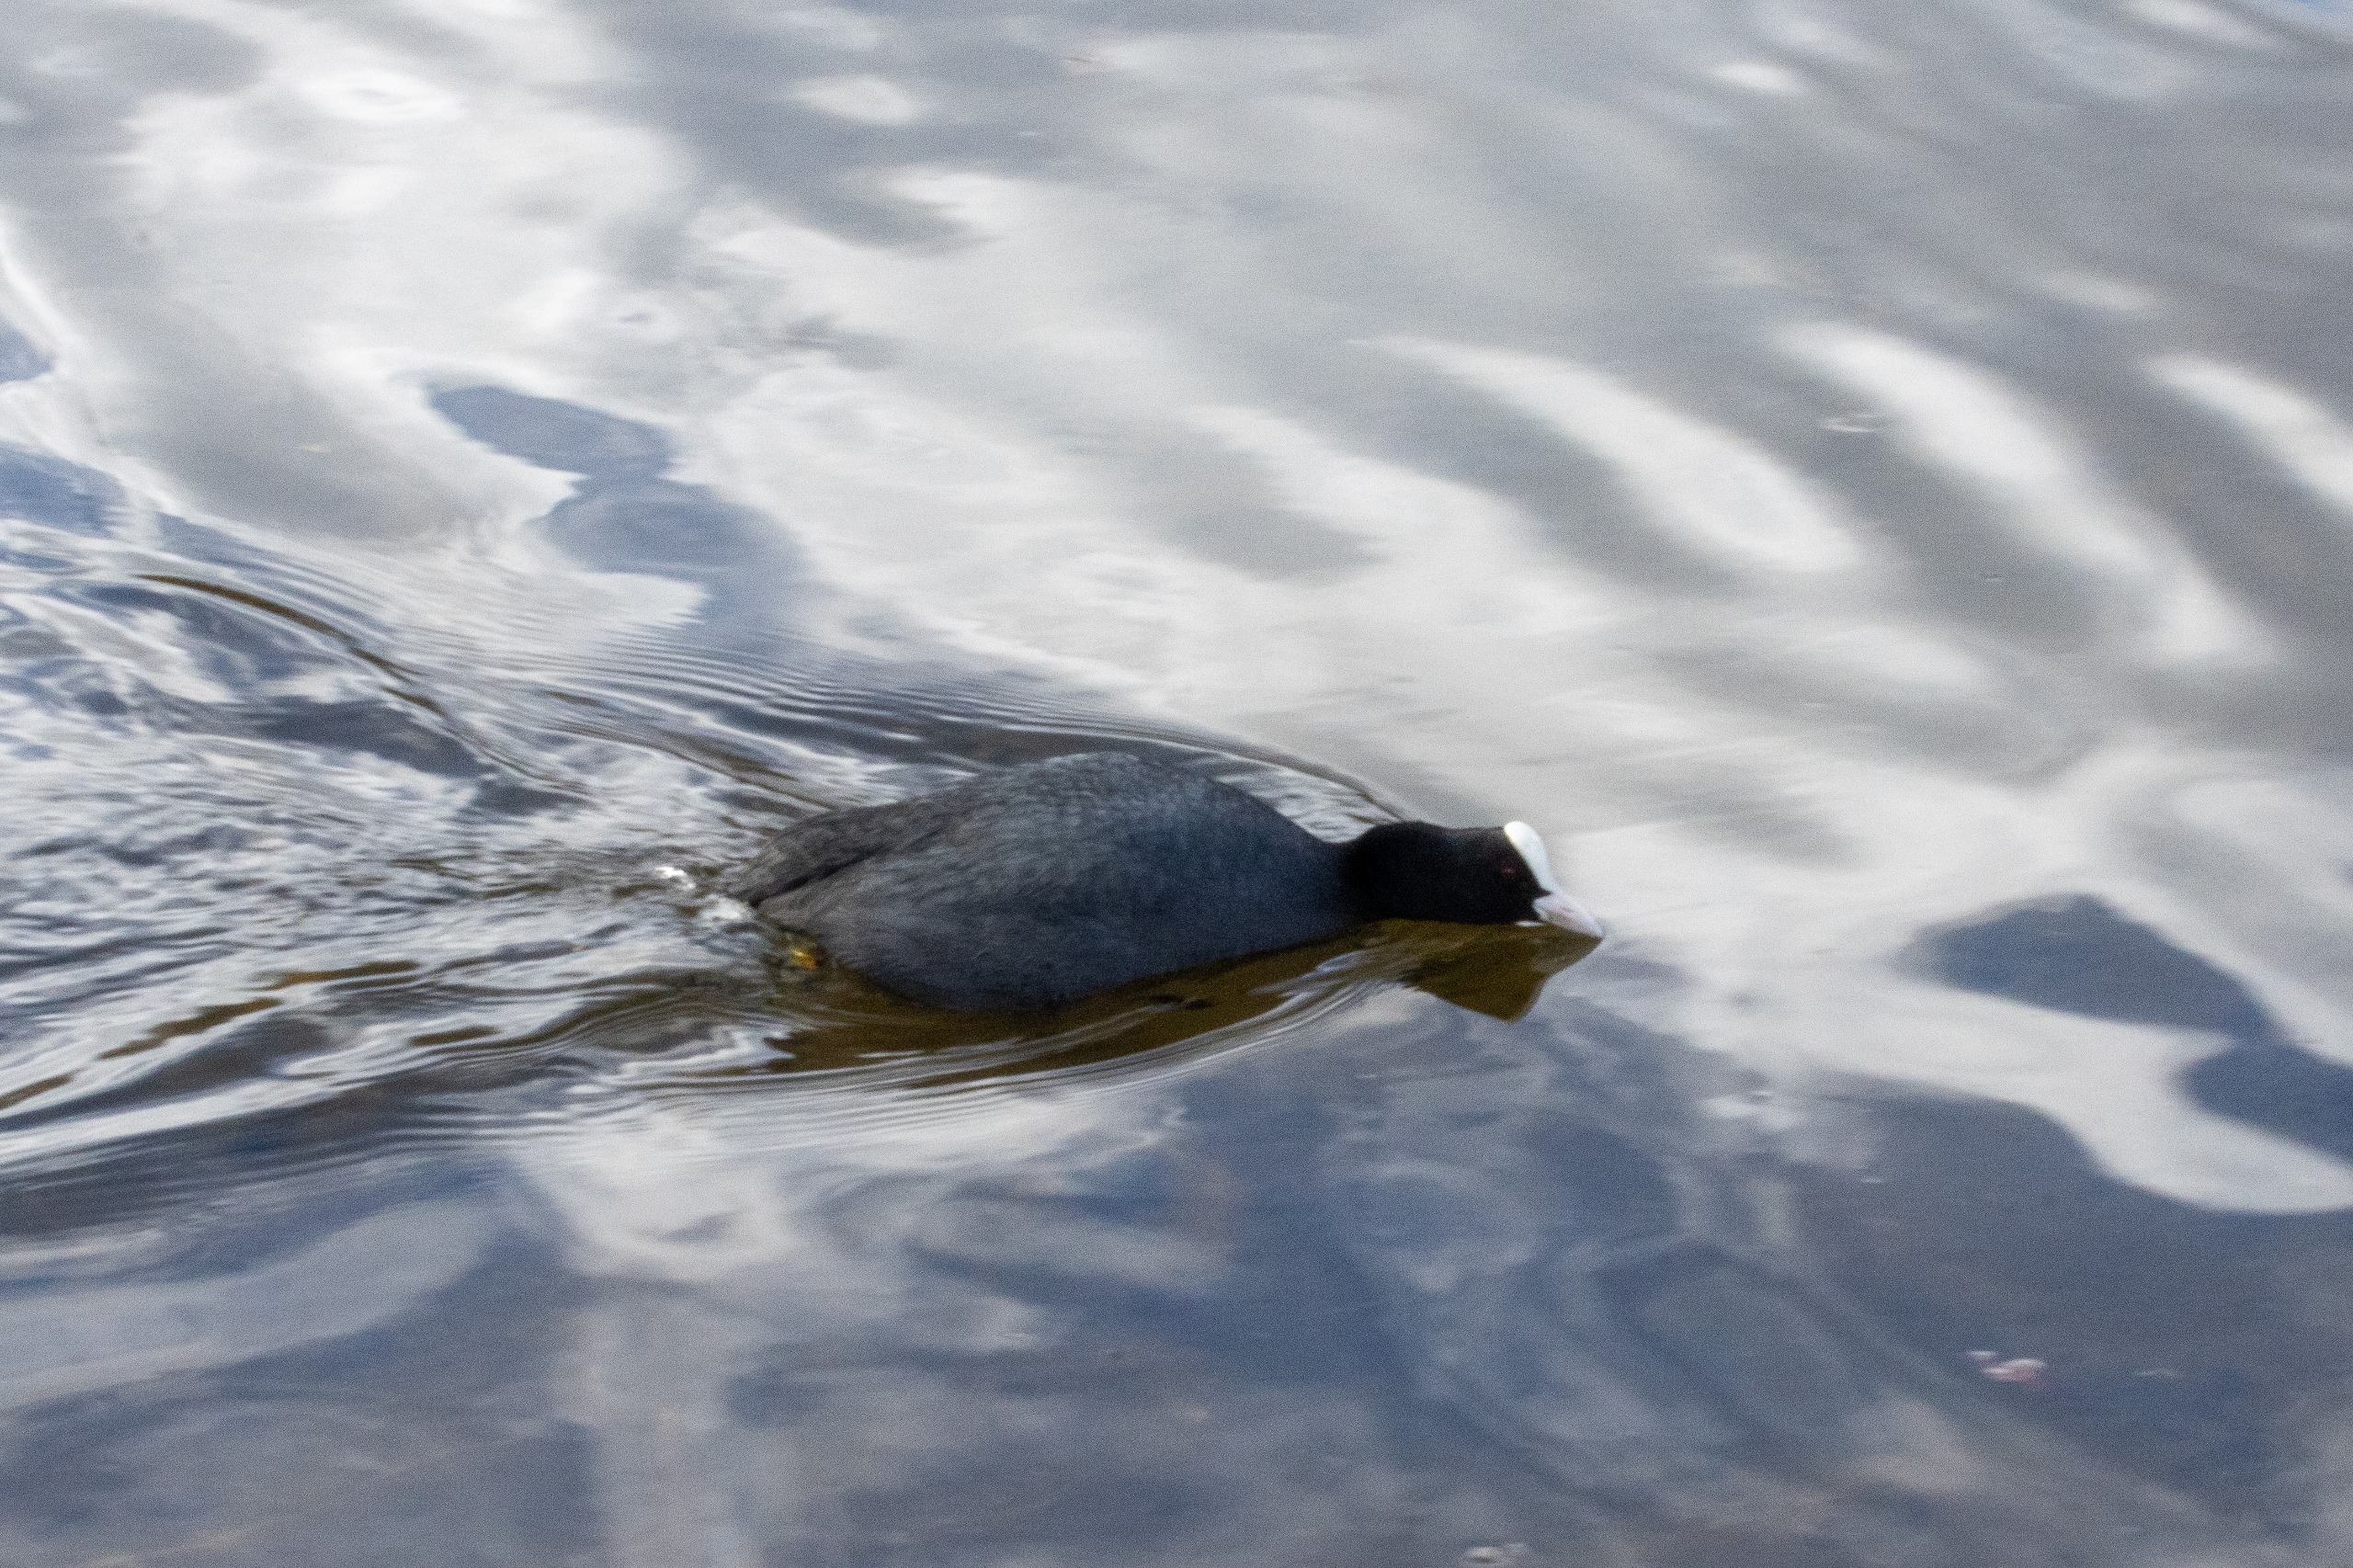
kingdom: Animalia
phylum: Chordata
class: Aves
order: Gruiformes
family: Rallidae
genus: Fulica
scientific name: Fulica atra
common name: Blishøne
